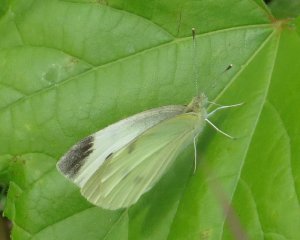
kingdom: Animalia
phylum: Arthropoda
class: Insecta
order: Lepidoptera
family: Pieridae
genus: Pieris
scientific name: Pieris rapae
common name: Cabbage White
